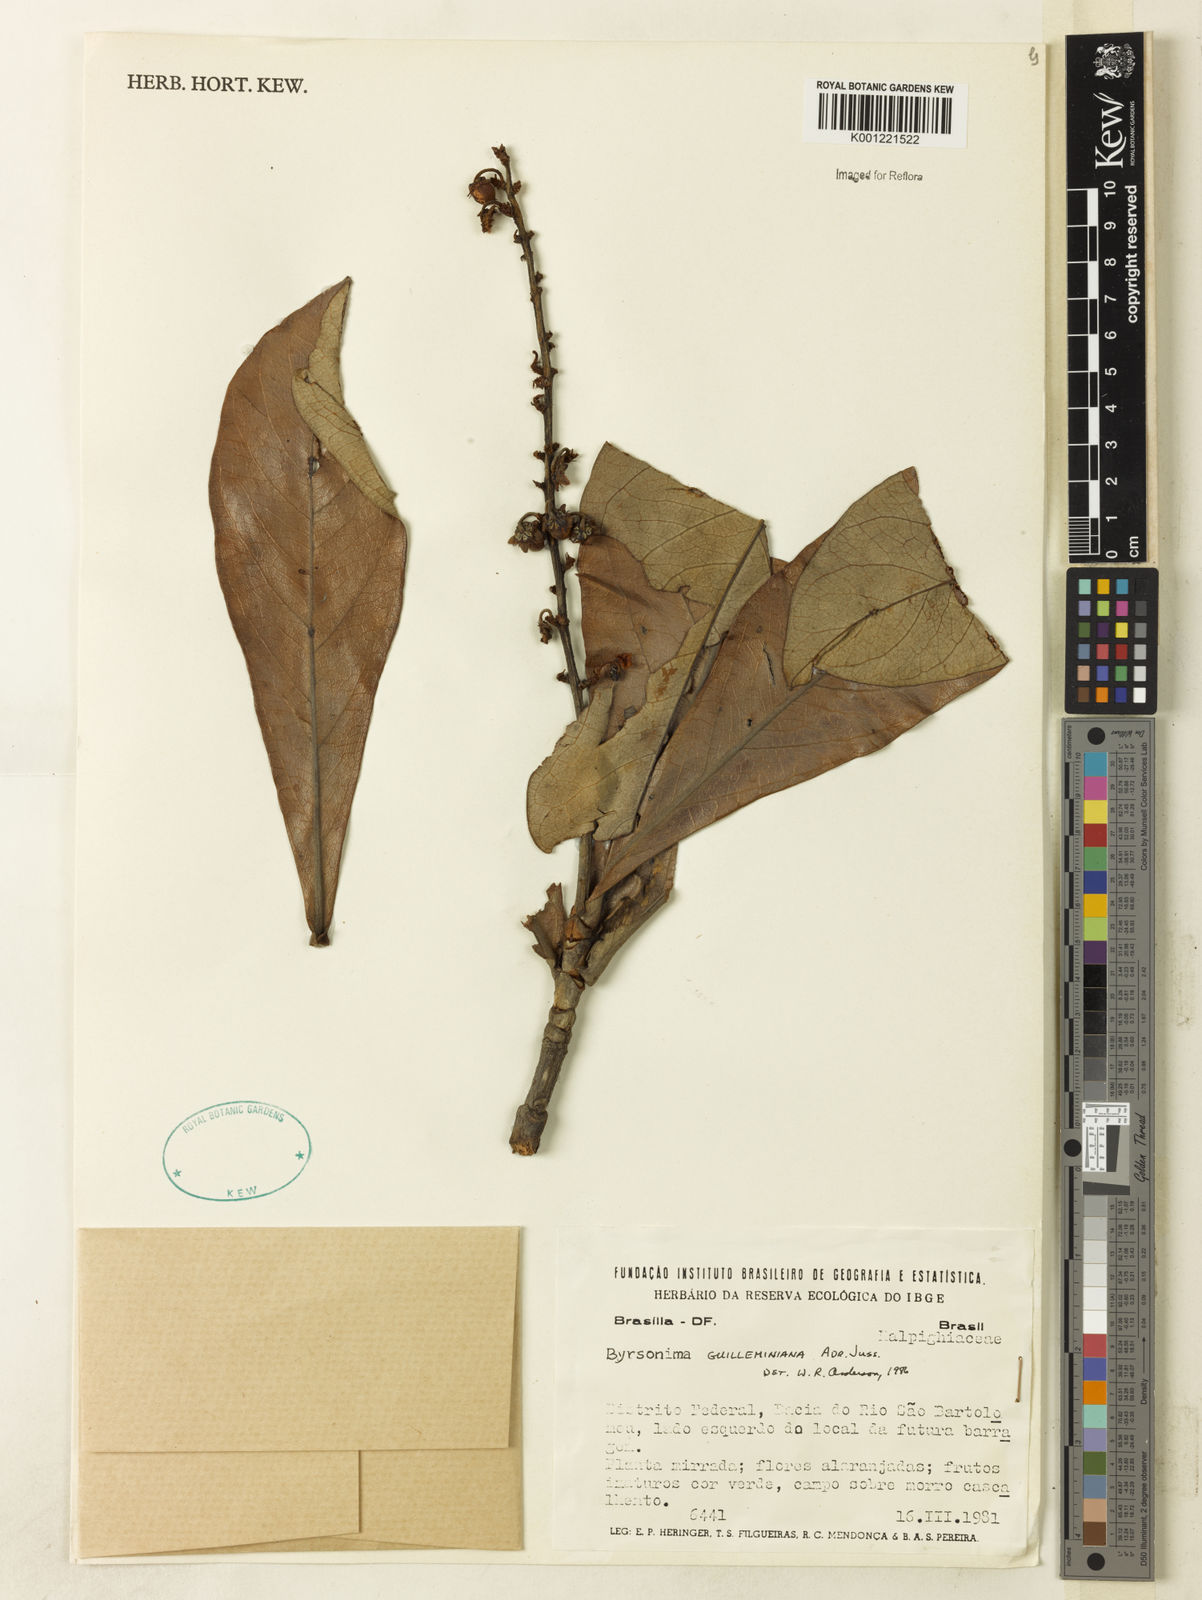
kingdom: Plantae
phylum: Tracheophyta
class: Magnoliopsida
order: Malpighiales
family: Malpighiaceae
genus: Byrsonima
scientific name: Byrsonima guilleminiana
